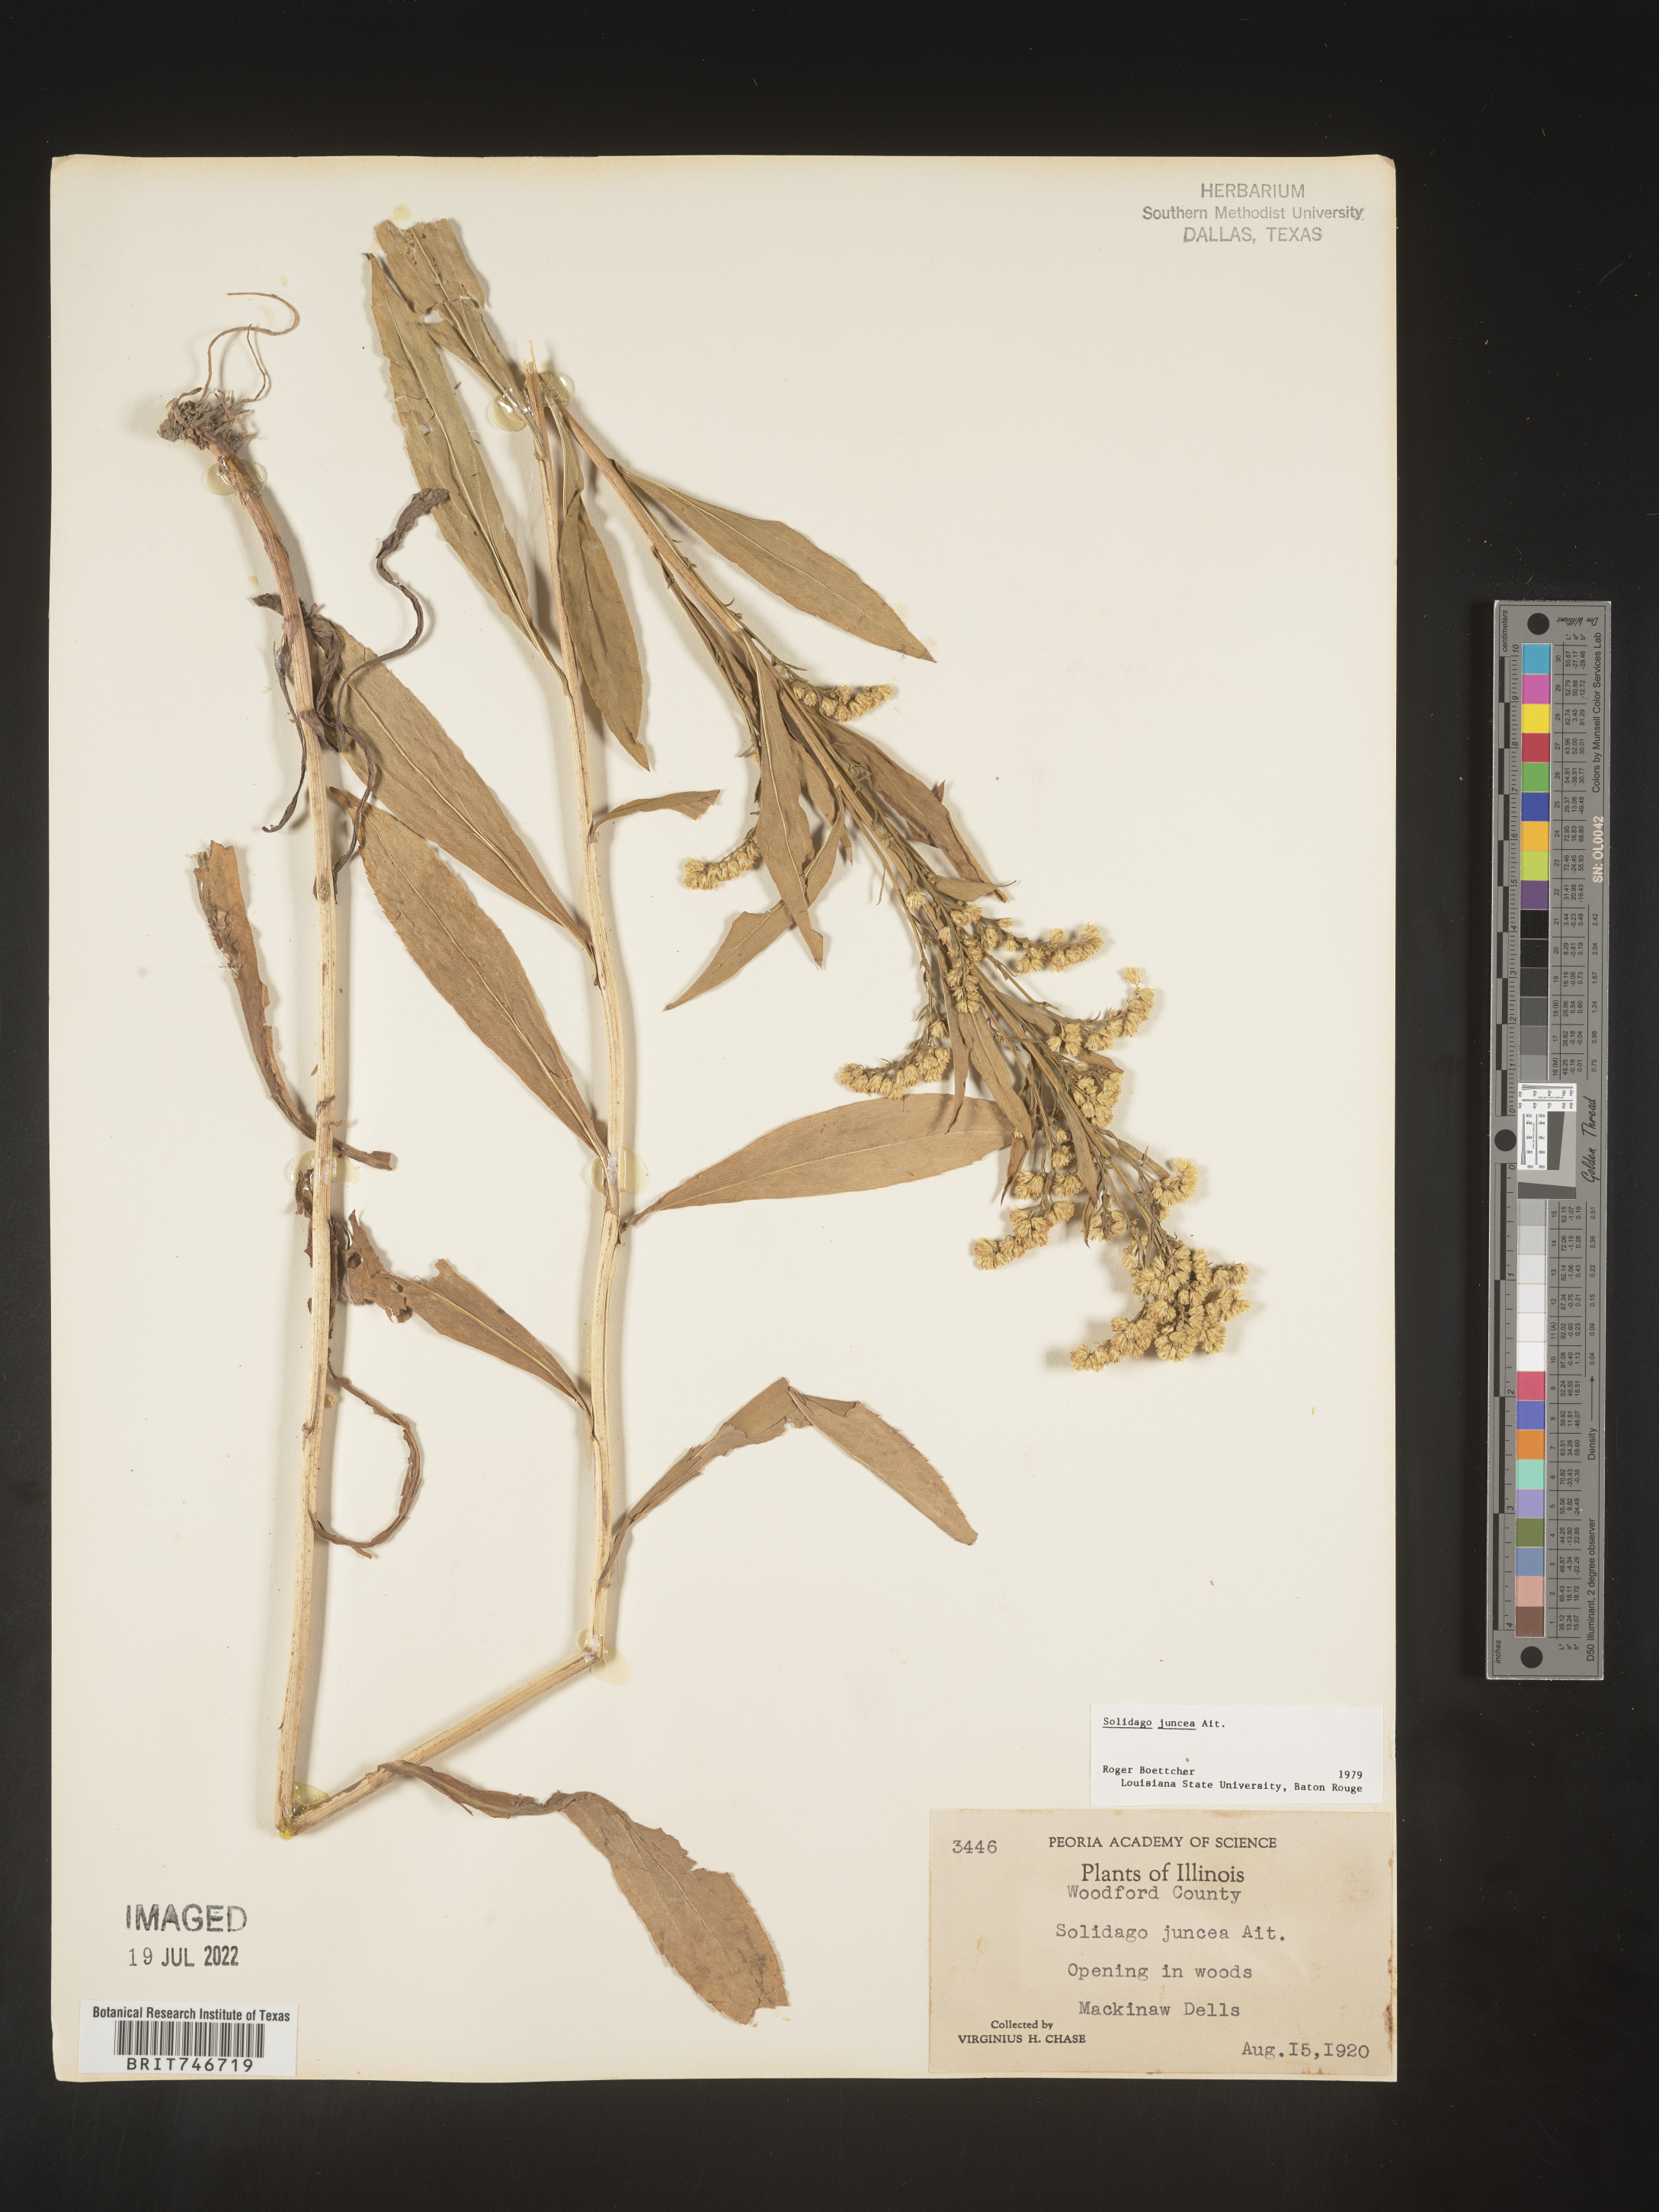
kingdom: Plantae
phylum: Tracheophyta
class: Magnoliopsida
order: Asterales
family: Asteraceae
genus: Solidago
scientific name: Solidago juncea
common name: Early goldenrod
